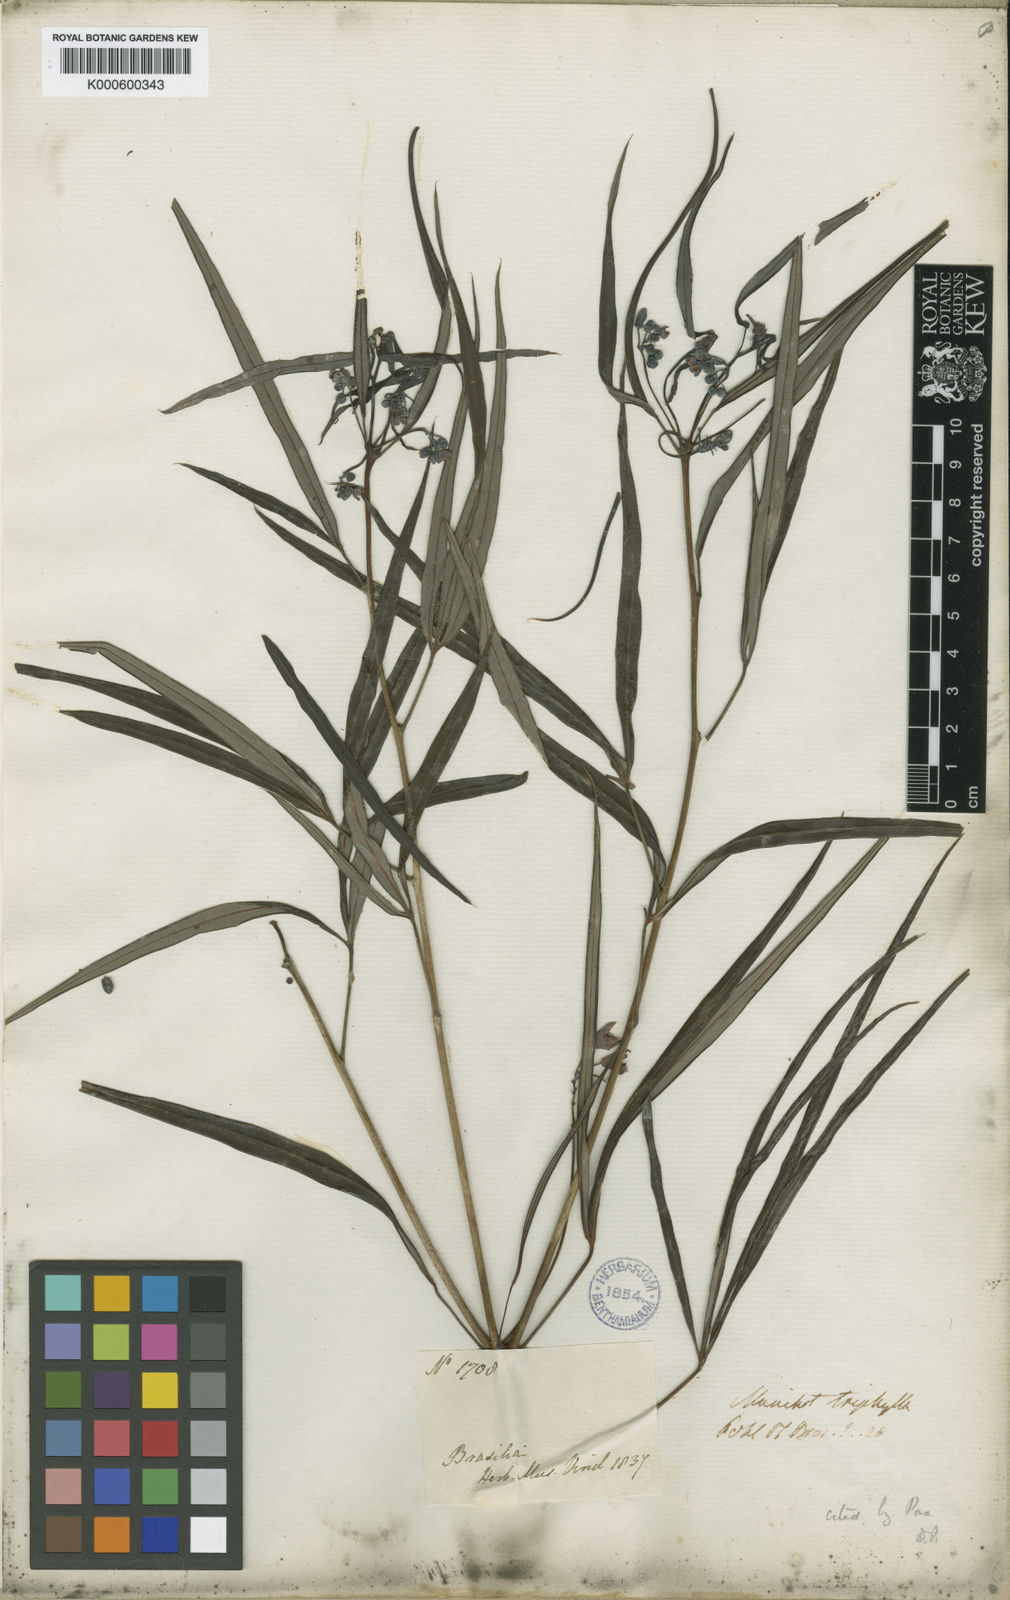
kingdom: Plantae
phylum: Tracheophyta
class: Magnoliopsida
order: Malpighiales
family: Euphorbiaceae
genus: Manihot
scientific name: Manihot triphylla
